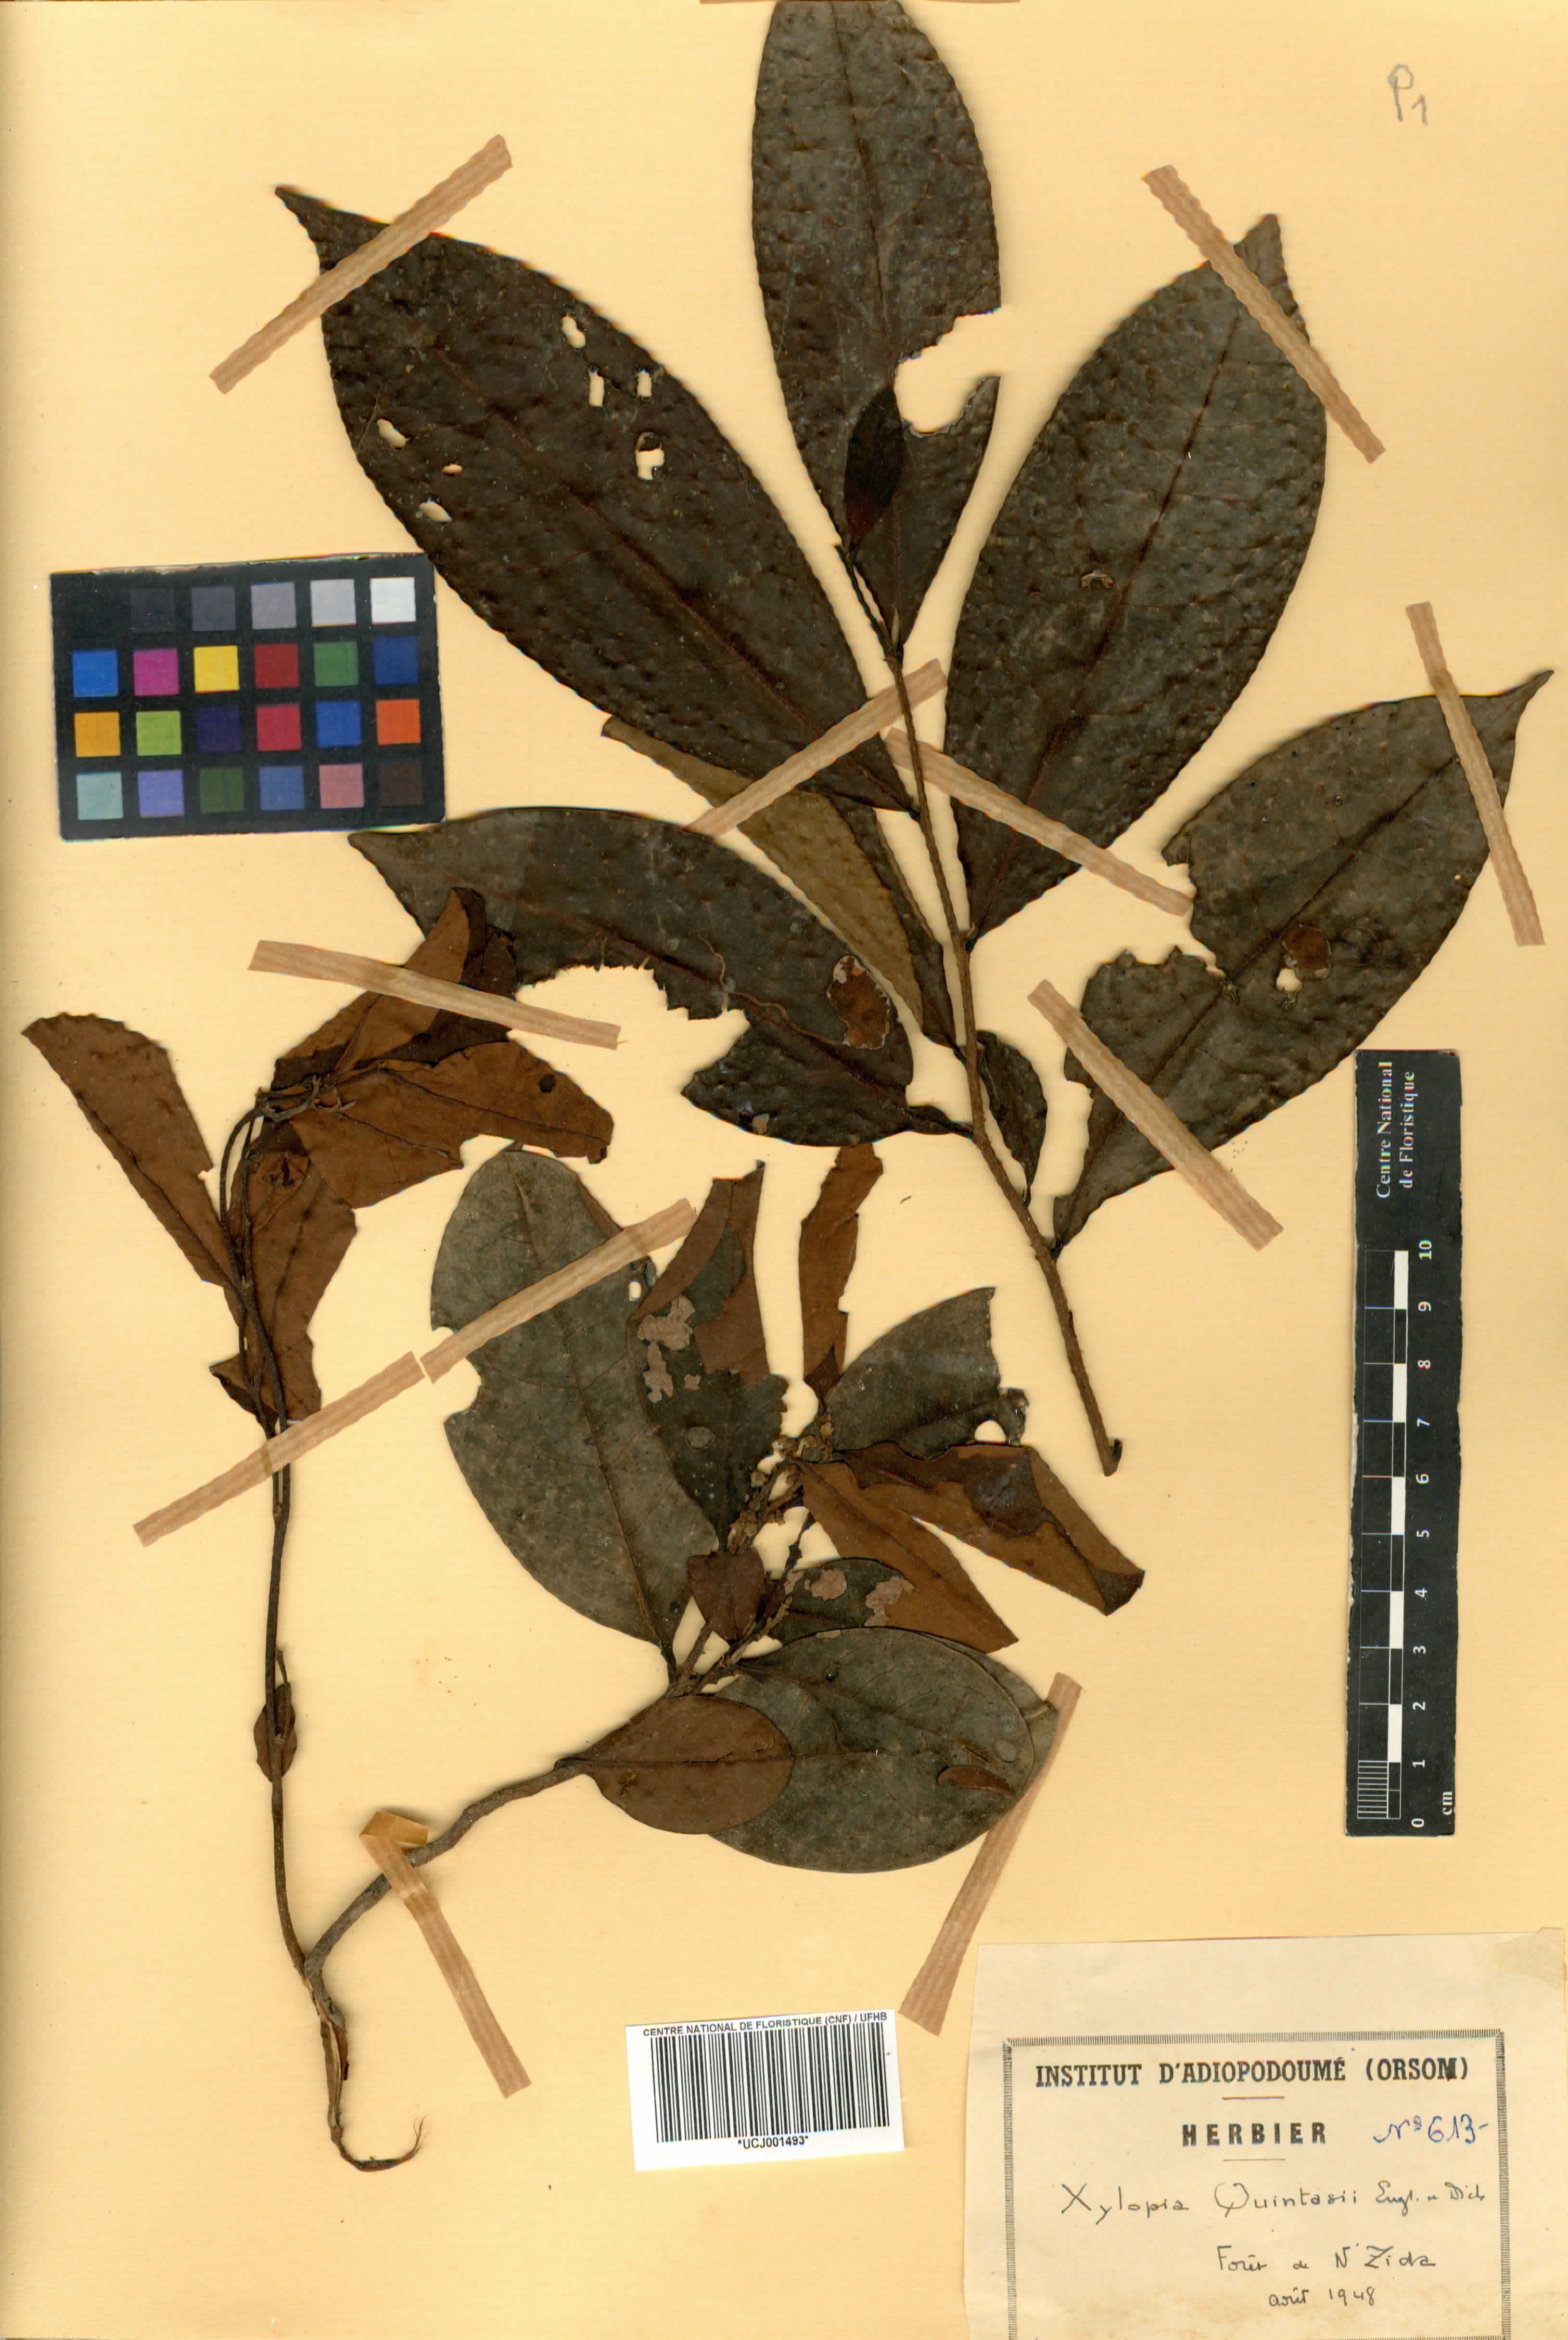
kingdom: Plantae
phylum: Tracheophyta
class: Magnoliopsida
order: Magnoliales
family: Annonaceae
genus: Xylopia
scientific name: Xylopia quintasii
